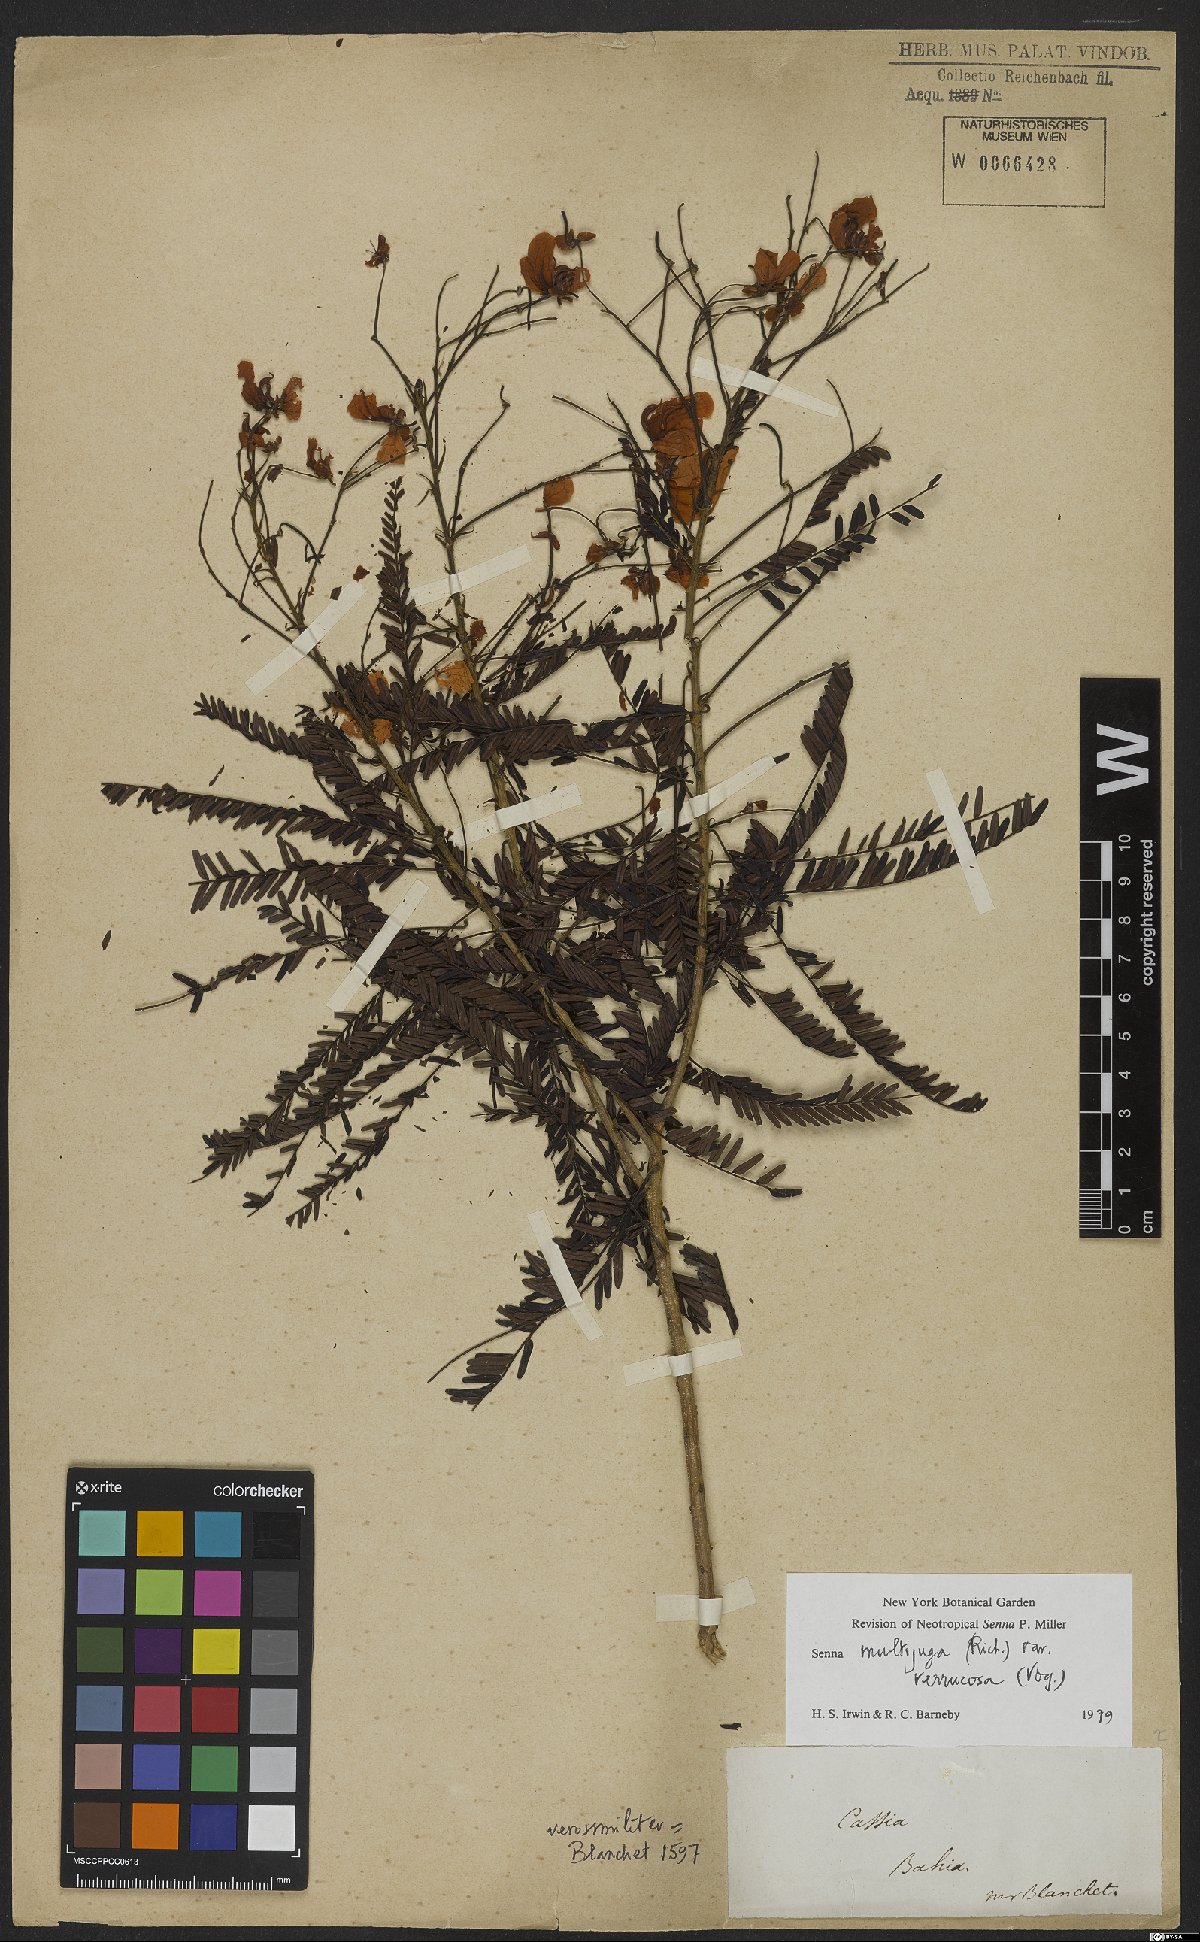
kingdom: Plantae
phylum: Tracheophyta
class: Magnoliopsida
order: Fabales
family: Fabaceae
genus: Senna
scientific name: Senna multijuga
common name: False sicklepod
